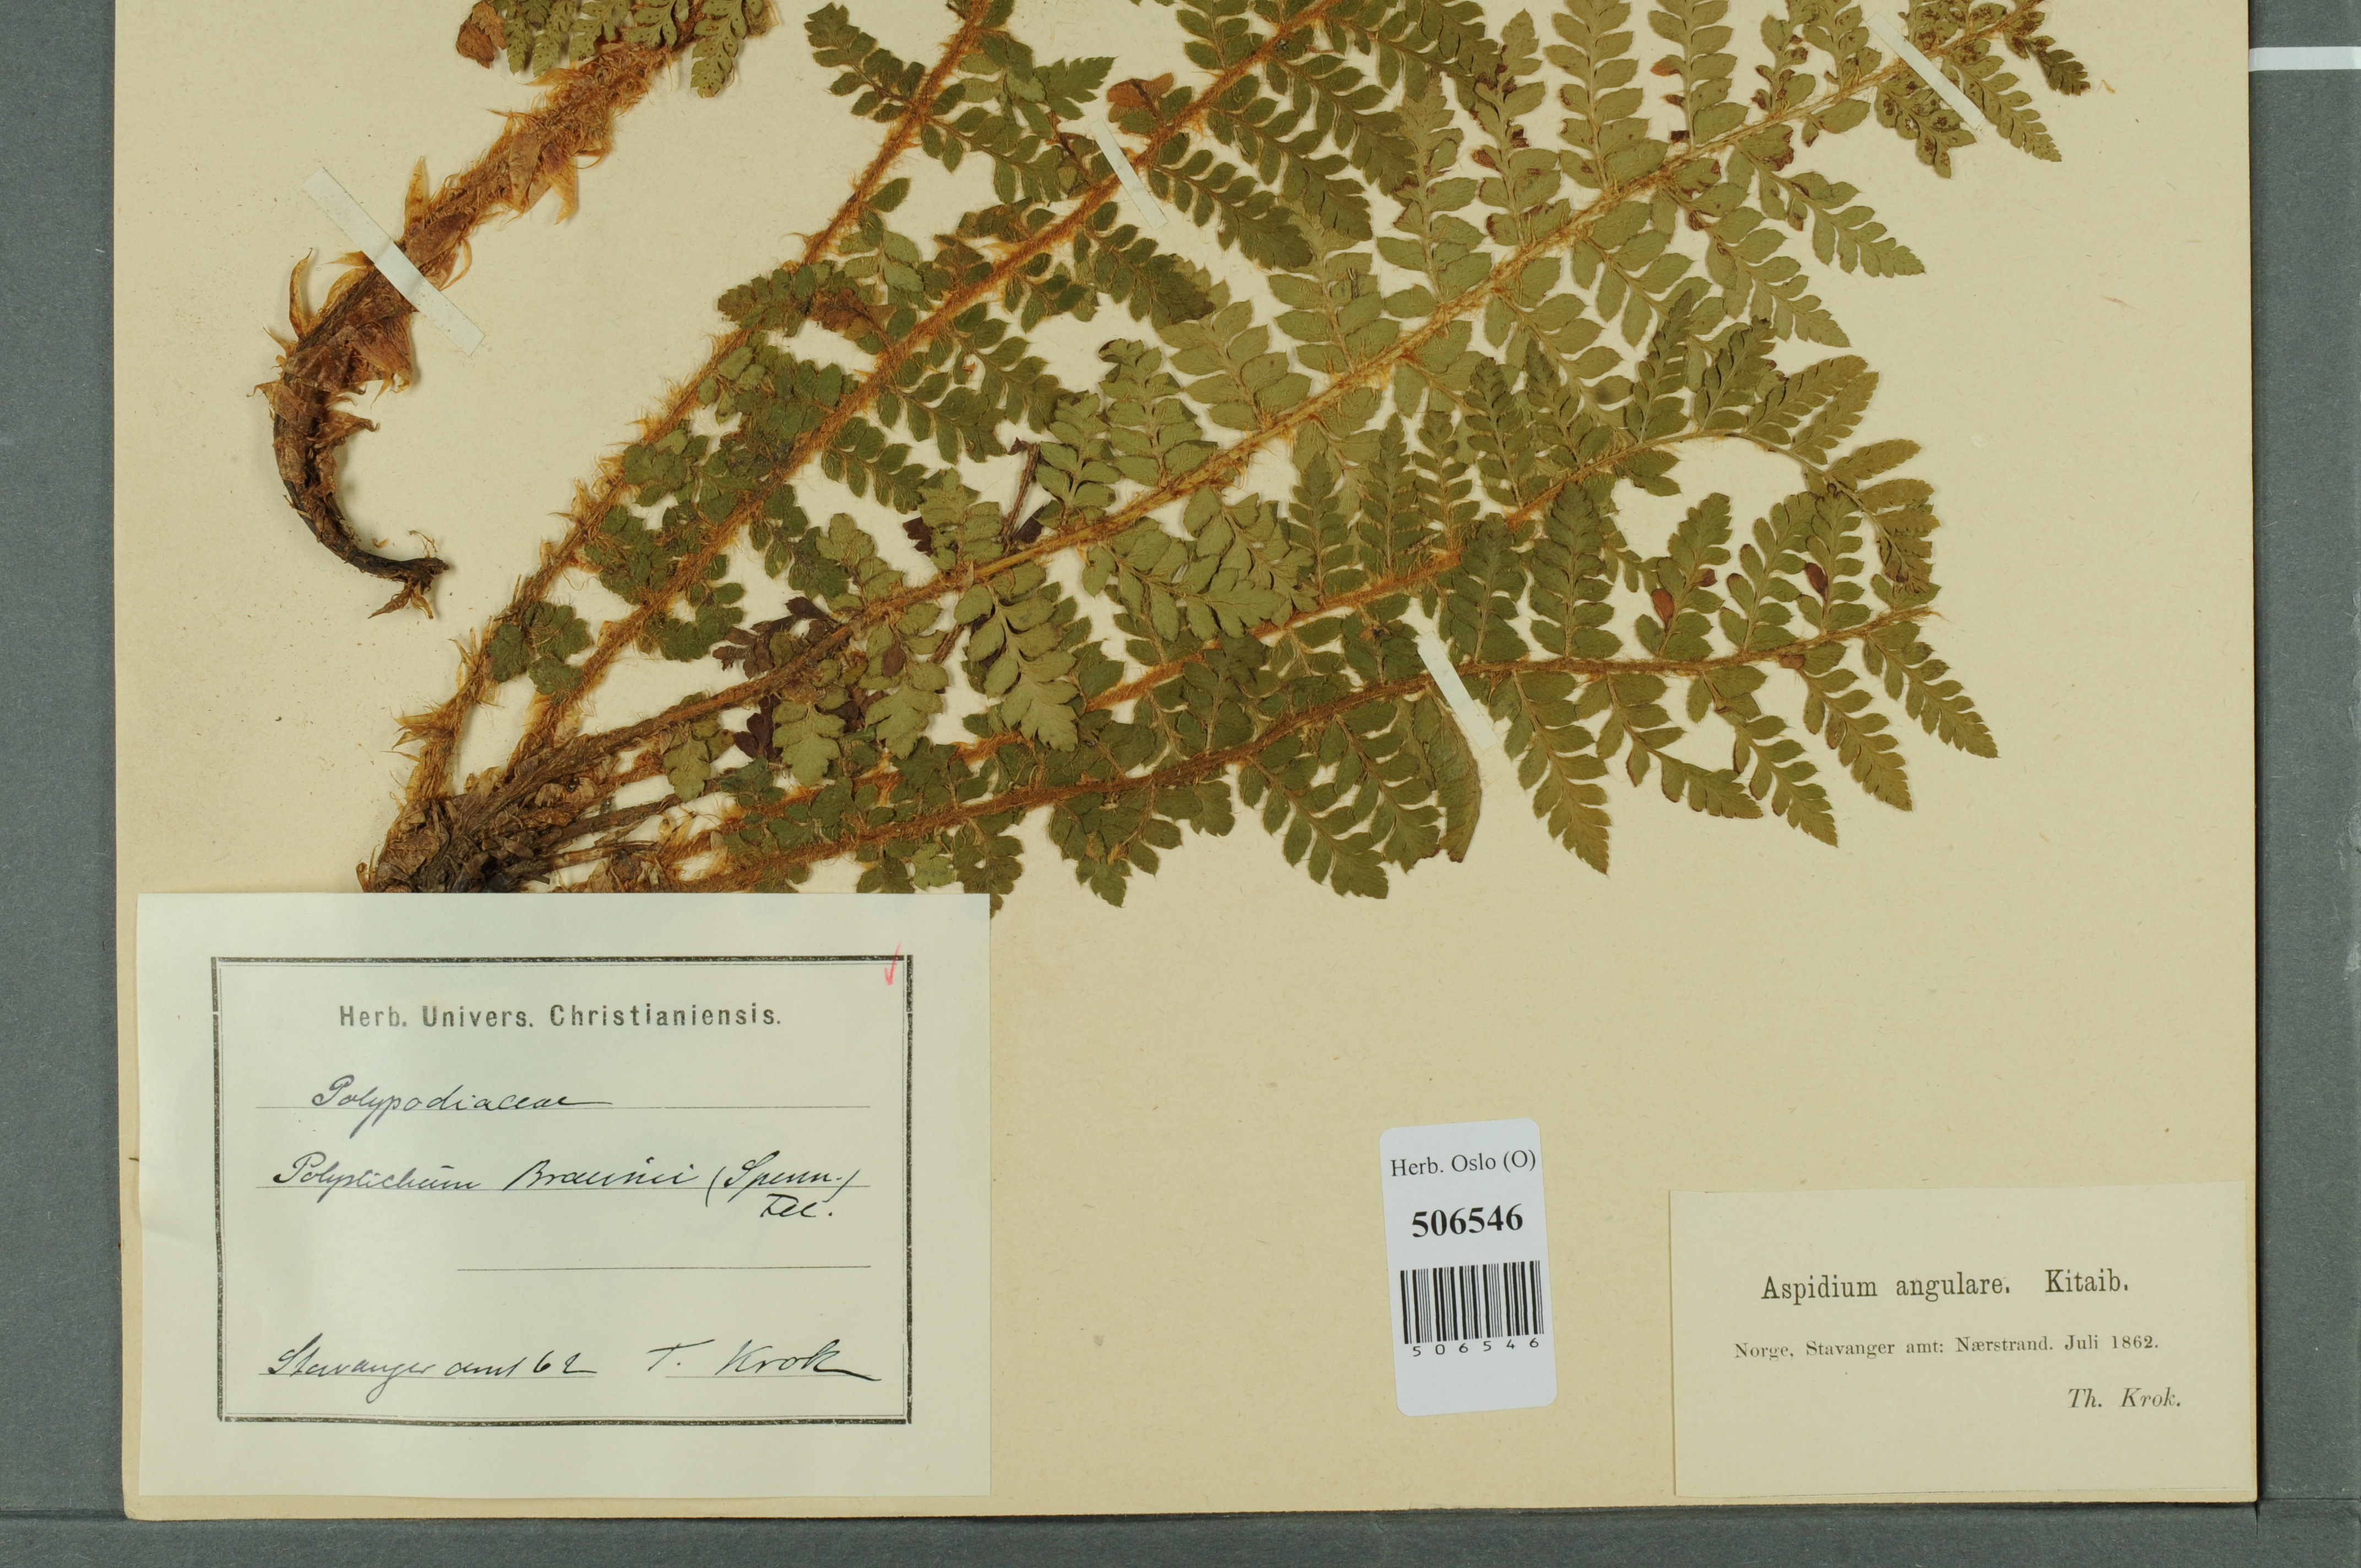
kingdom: Plantae
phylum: Tracheophyta
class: Polypodiopsida
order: Polypodiales
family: Dryopteridaceae
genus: Polystichum
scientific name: Polystichum braunii
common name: Braun's holly fern
